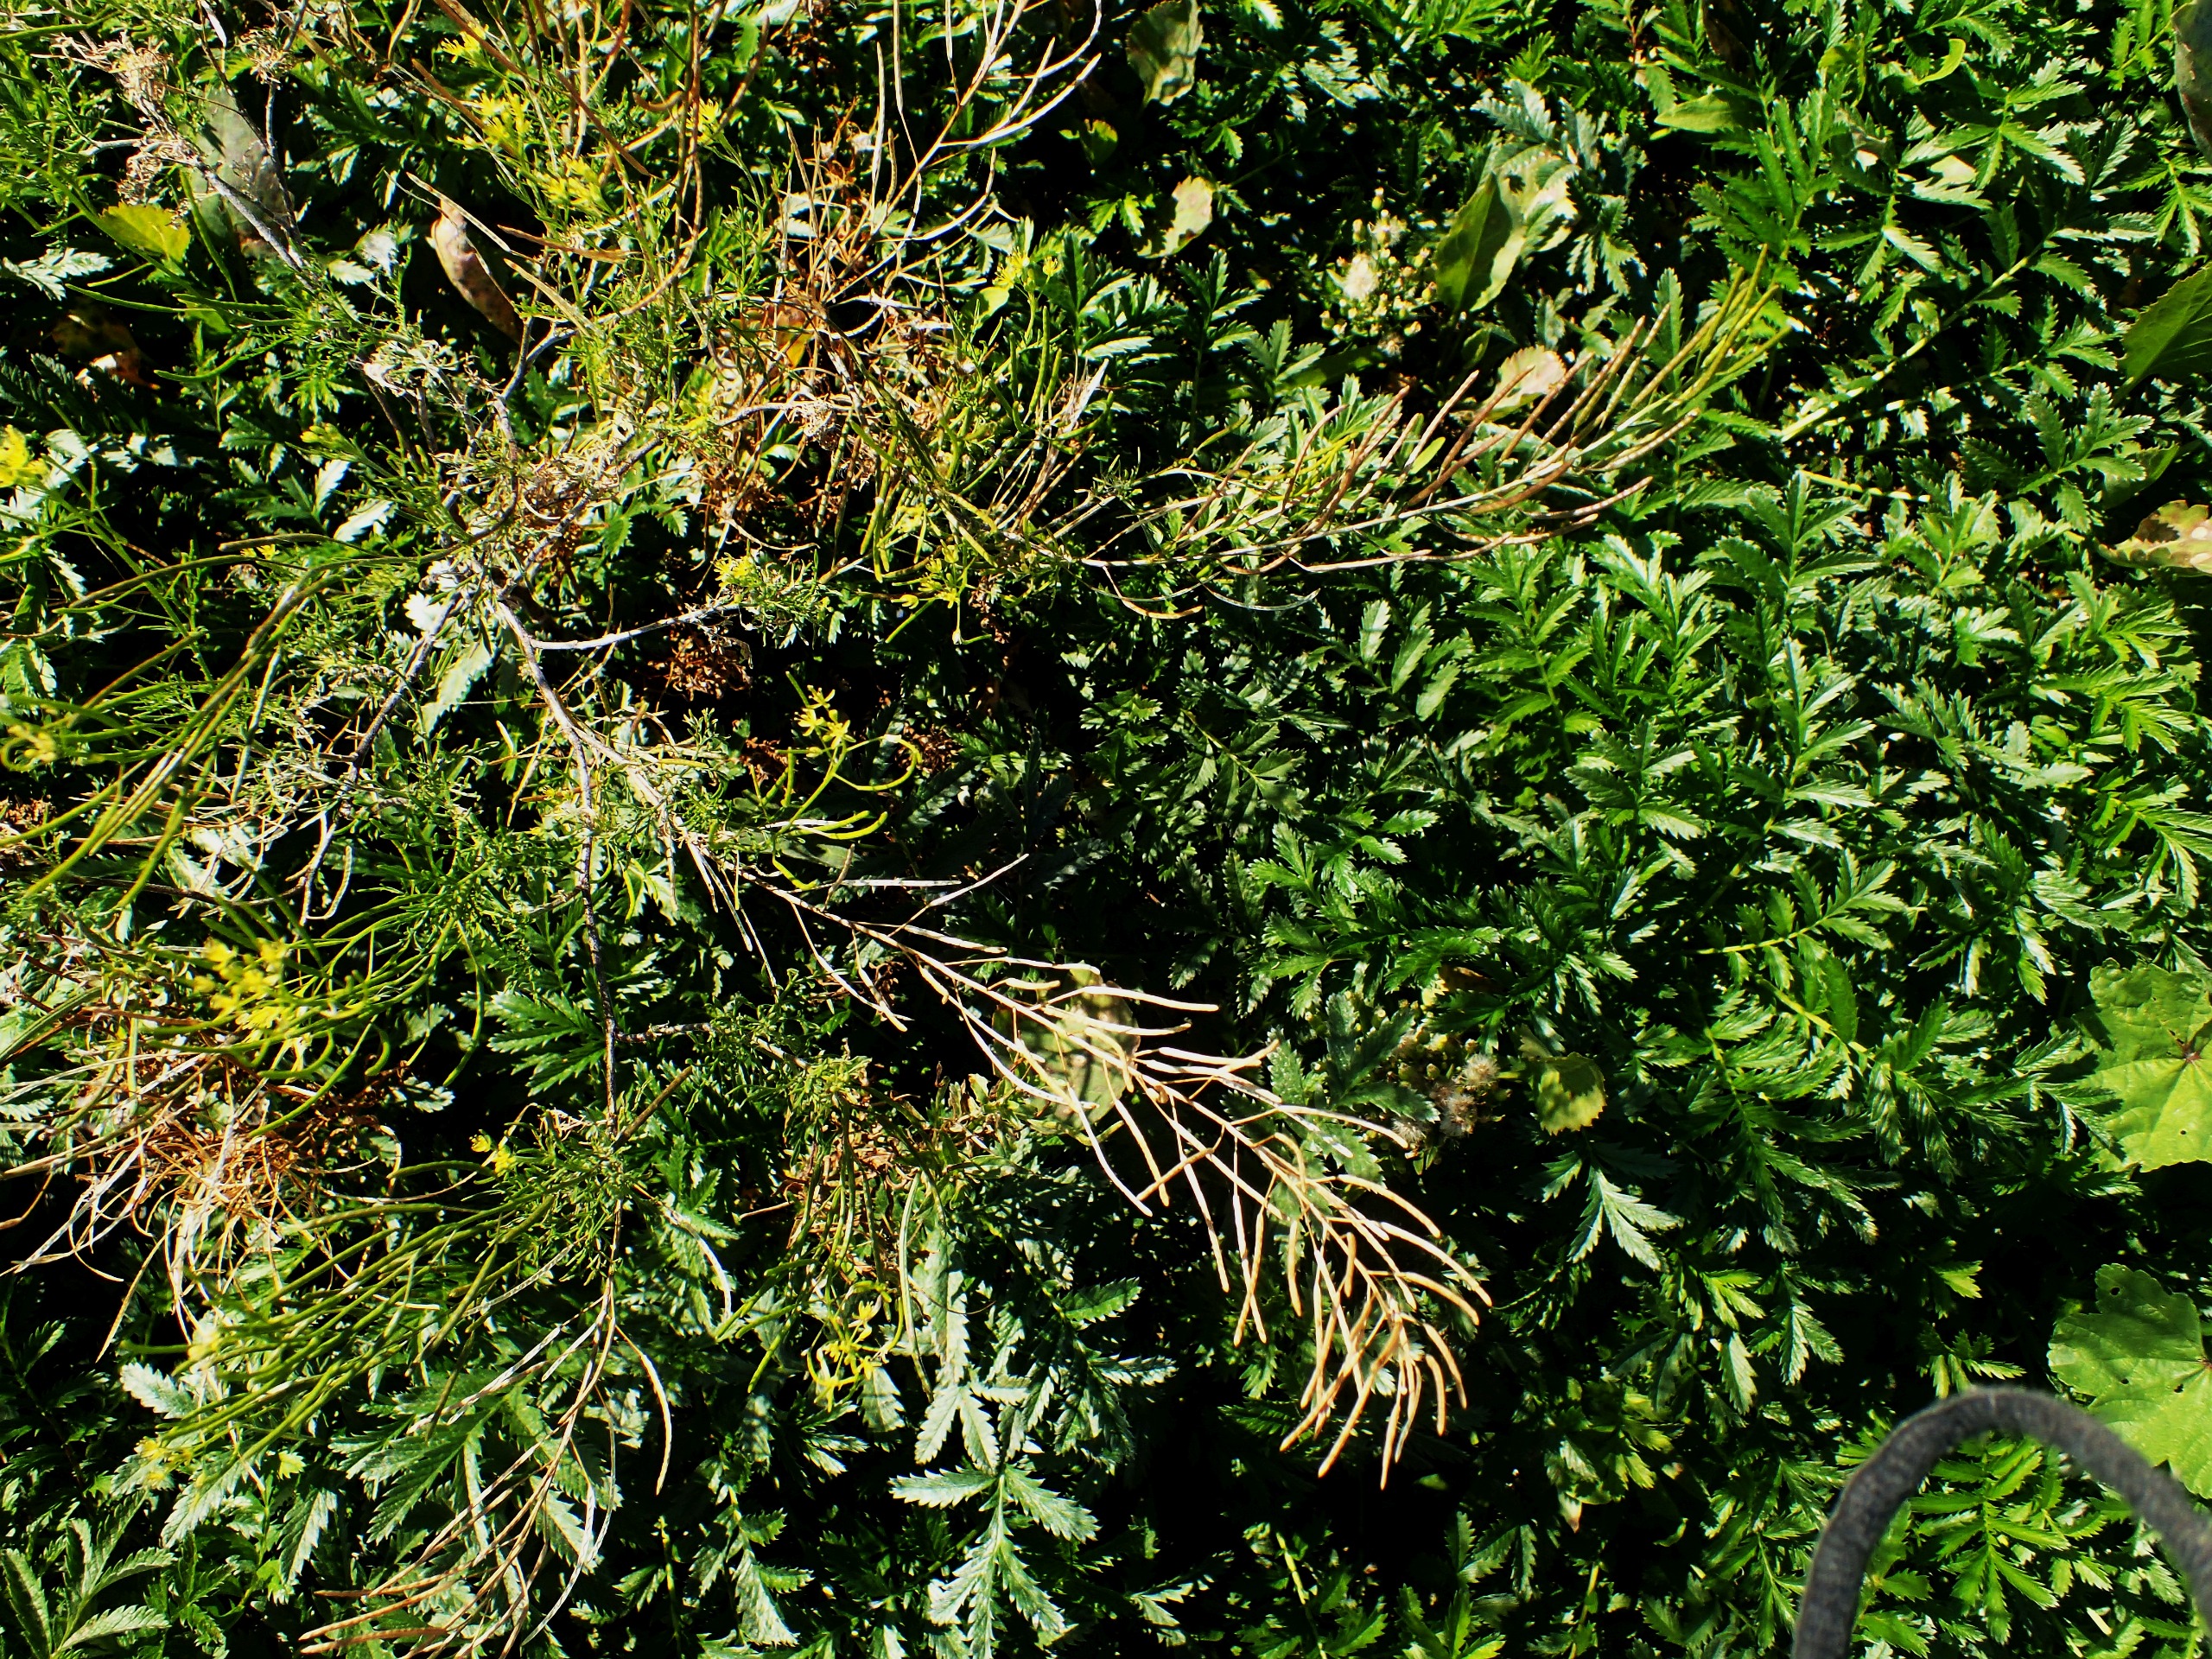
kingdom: Plantae
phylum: Tracheophyta
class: Magnoliopsida
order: Brassicales
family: Brassicaceae
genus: Descurainia
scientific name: Descurainia sophia
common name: Finbladet vejsennep
